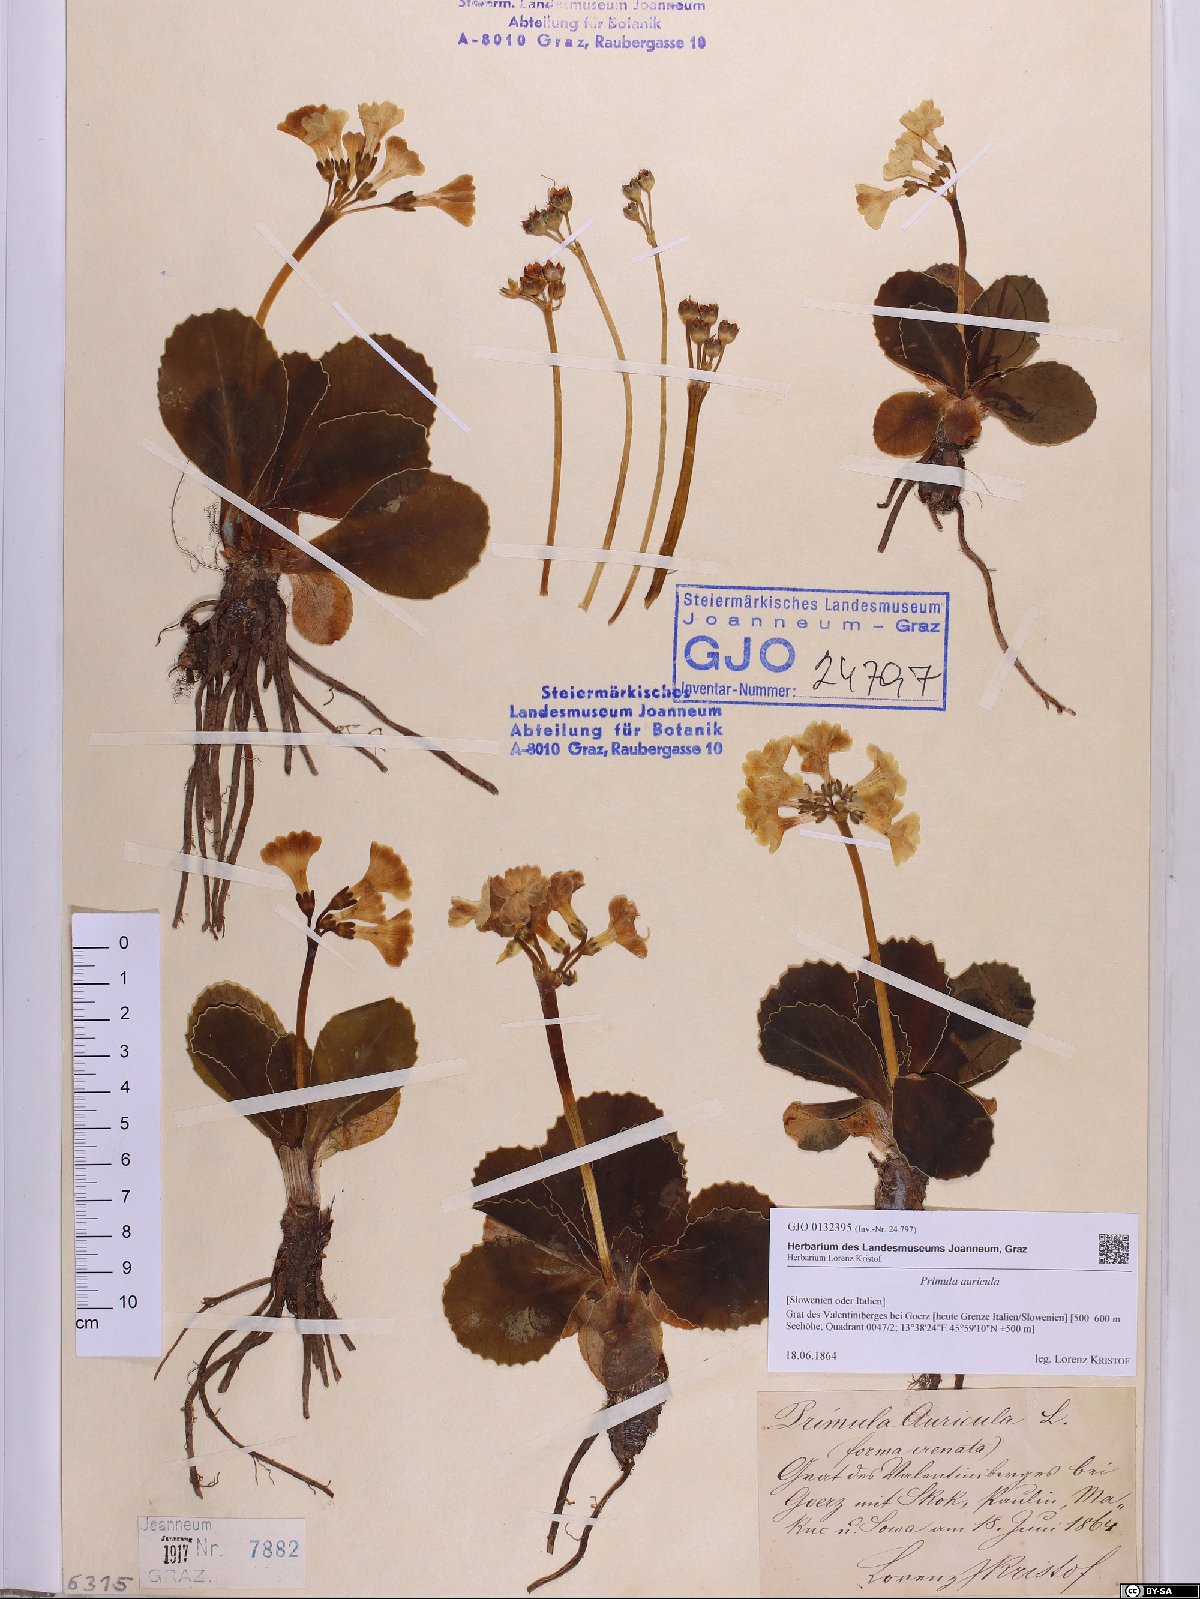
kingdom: Plantae
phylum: Tracheophyta
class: Magnoliopsida
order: Ericales
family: Primulaceae
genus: Primula
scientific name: Primula auricula
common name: Auricula
